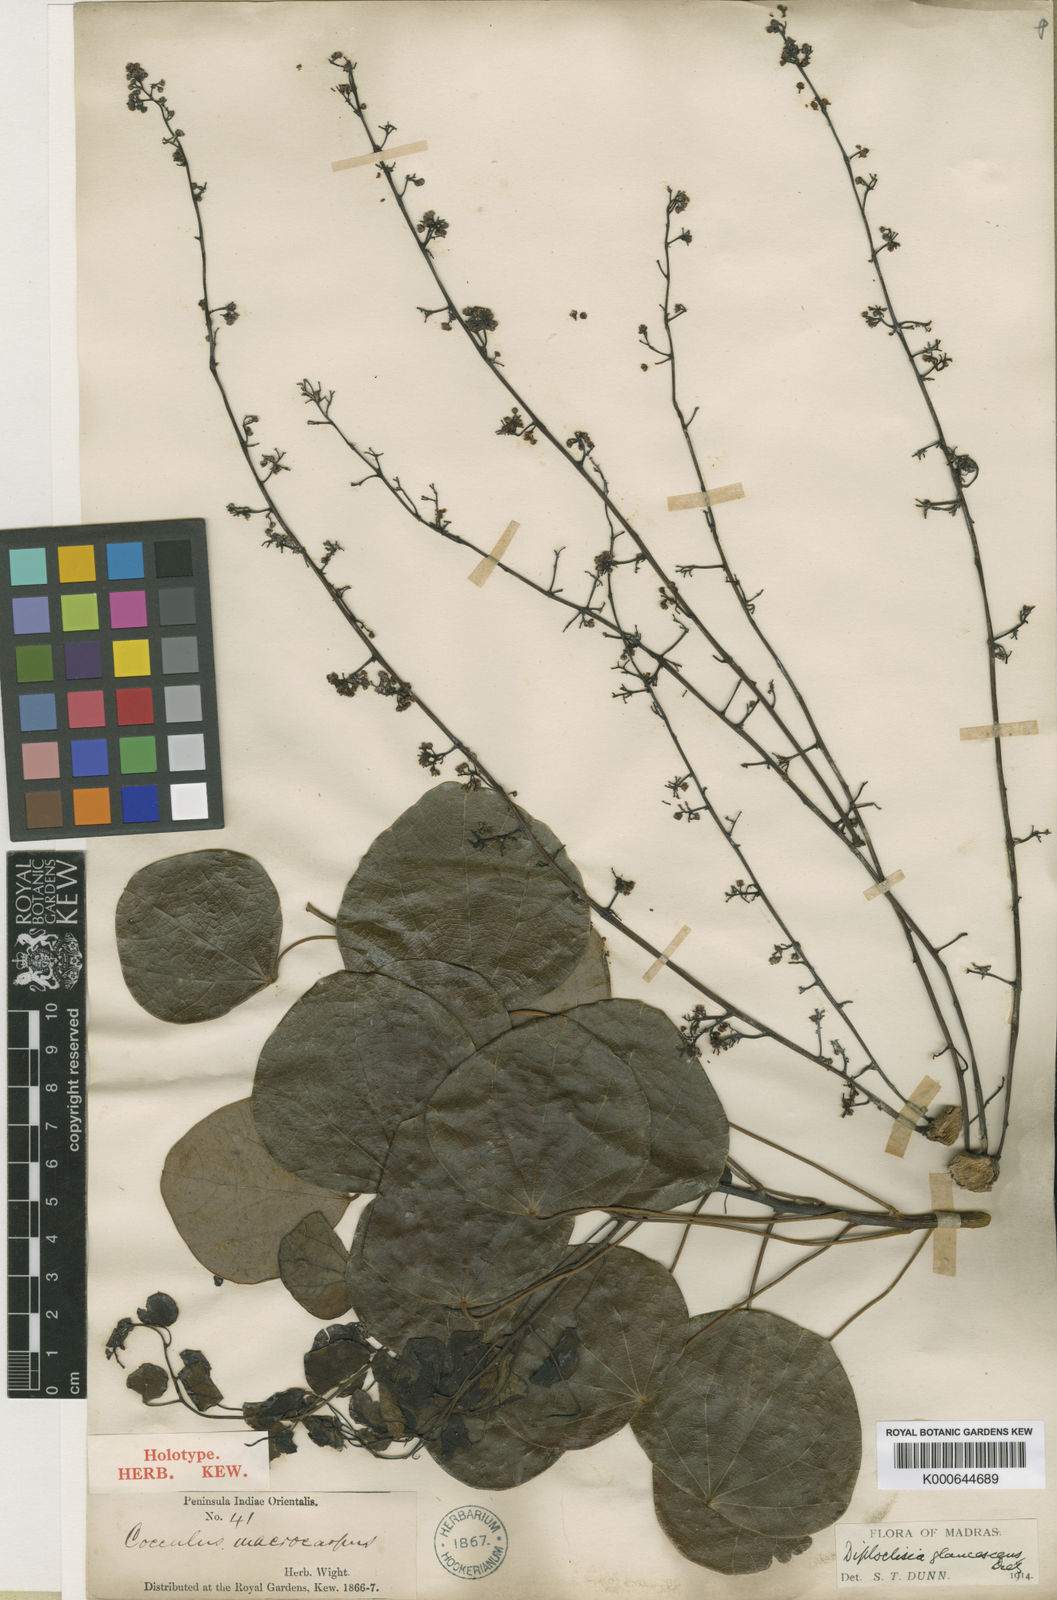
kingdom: Plantae
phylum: Tracheophyta
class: Magnoliopsida
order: Ranunculales
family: Menispermaceae
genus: Diploclisia
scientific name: Diploclisia glaucescens
